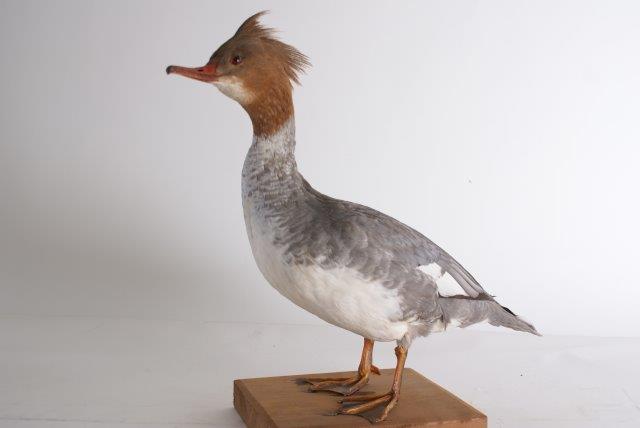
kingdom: Animalia
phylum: Chordata
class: Aves
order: Anseriformes
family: Anatidae
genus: Mergus
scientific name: Mergus merganser
